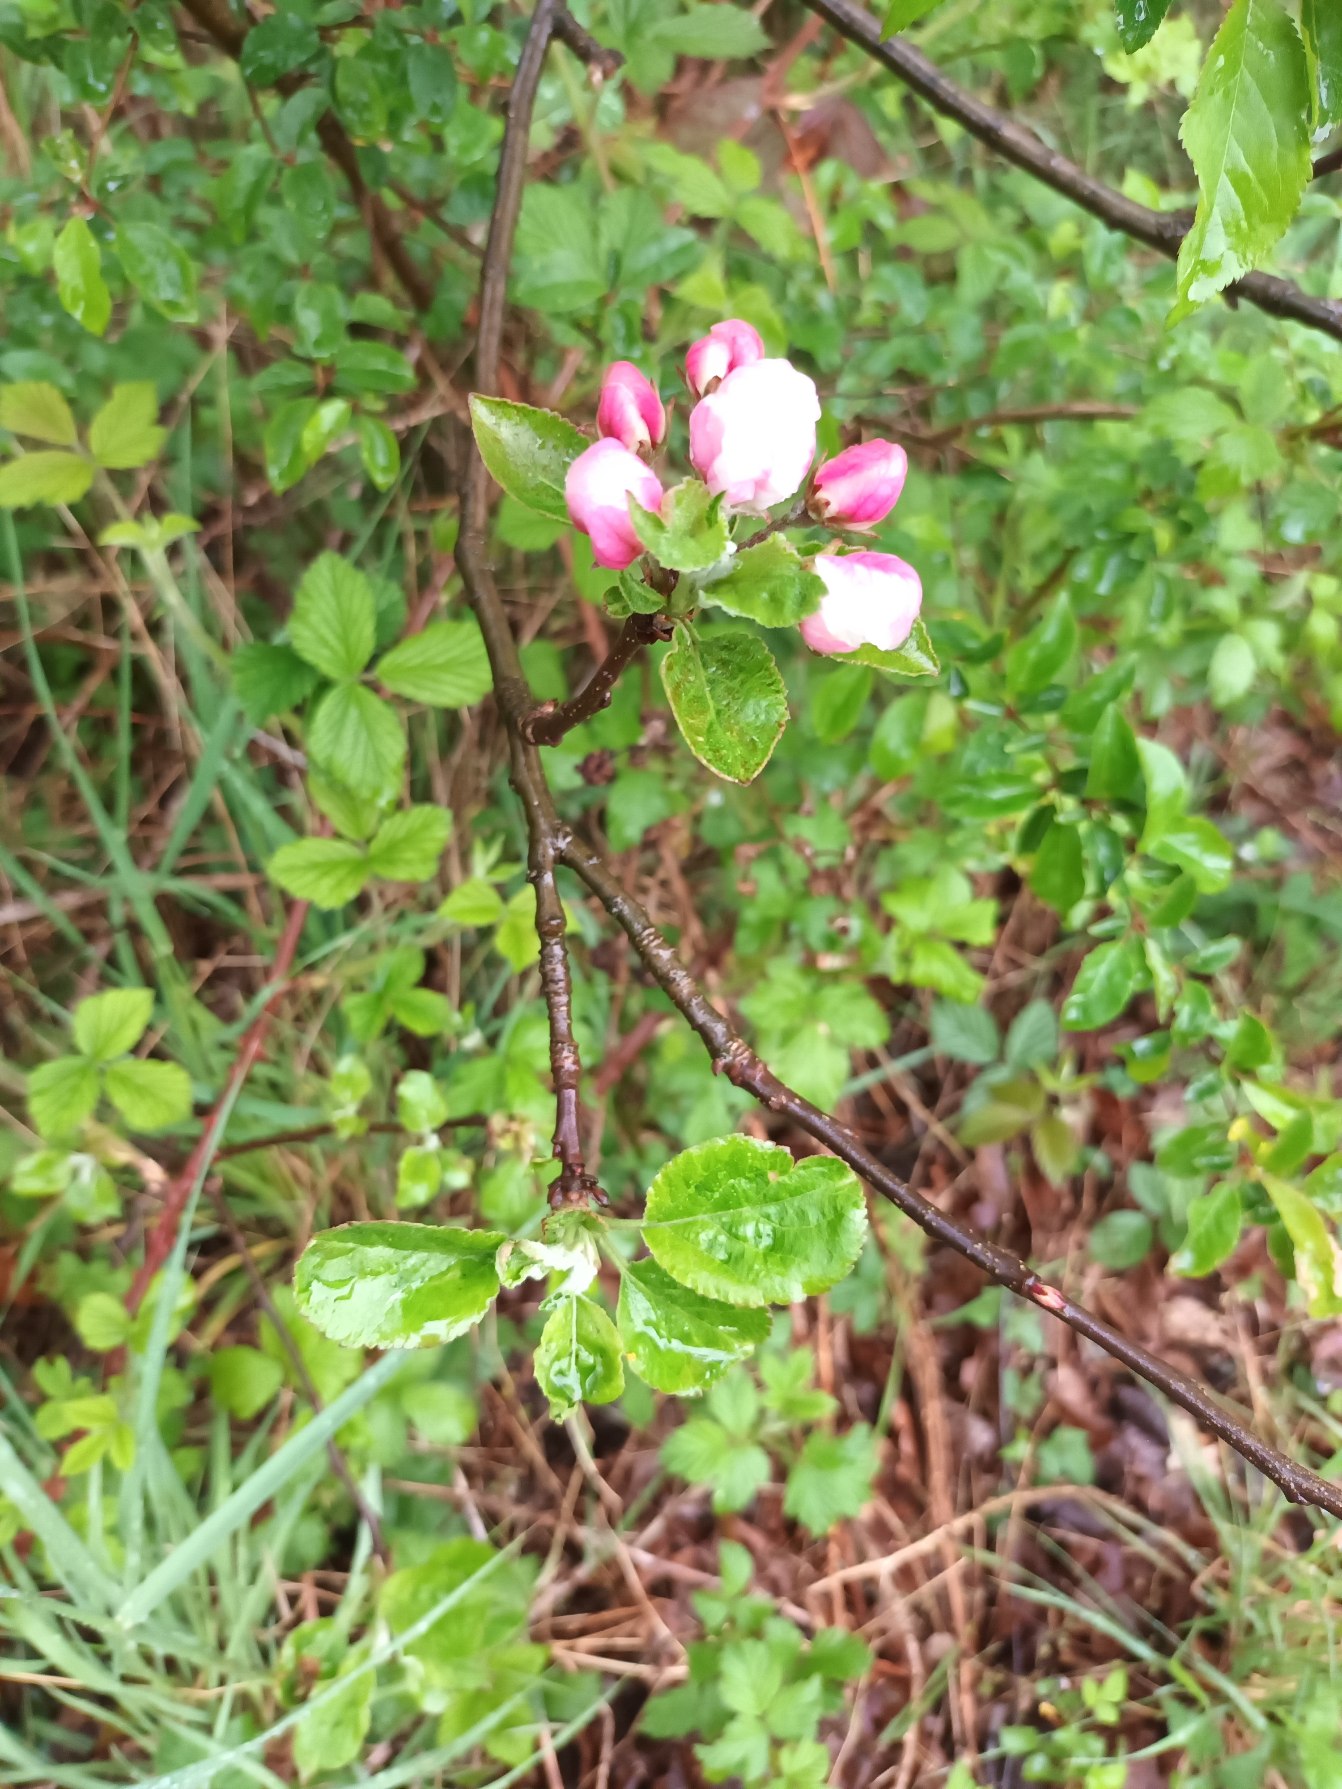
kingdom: Plantae
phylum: Tracheophyta
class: Magnoliopsida
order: Rosales
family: Rosaceae
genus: Malus
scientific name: Malus domestica
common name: Sød-æble
